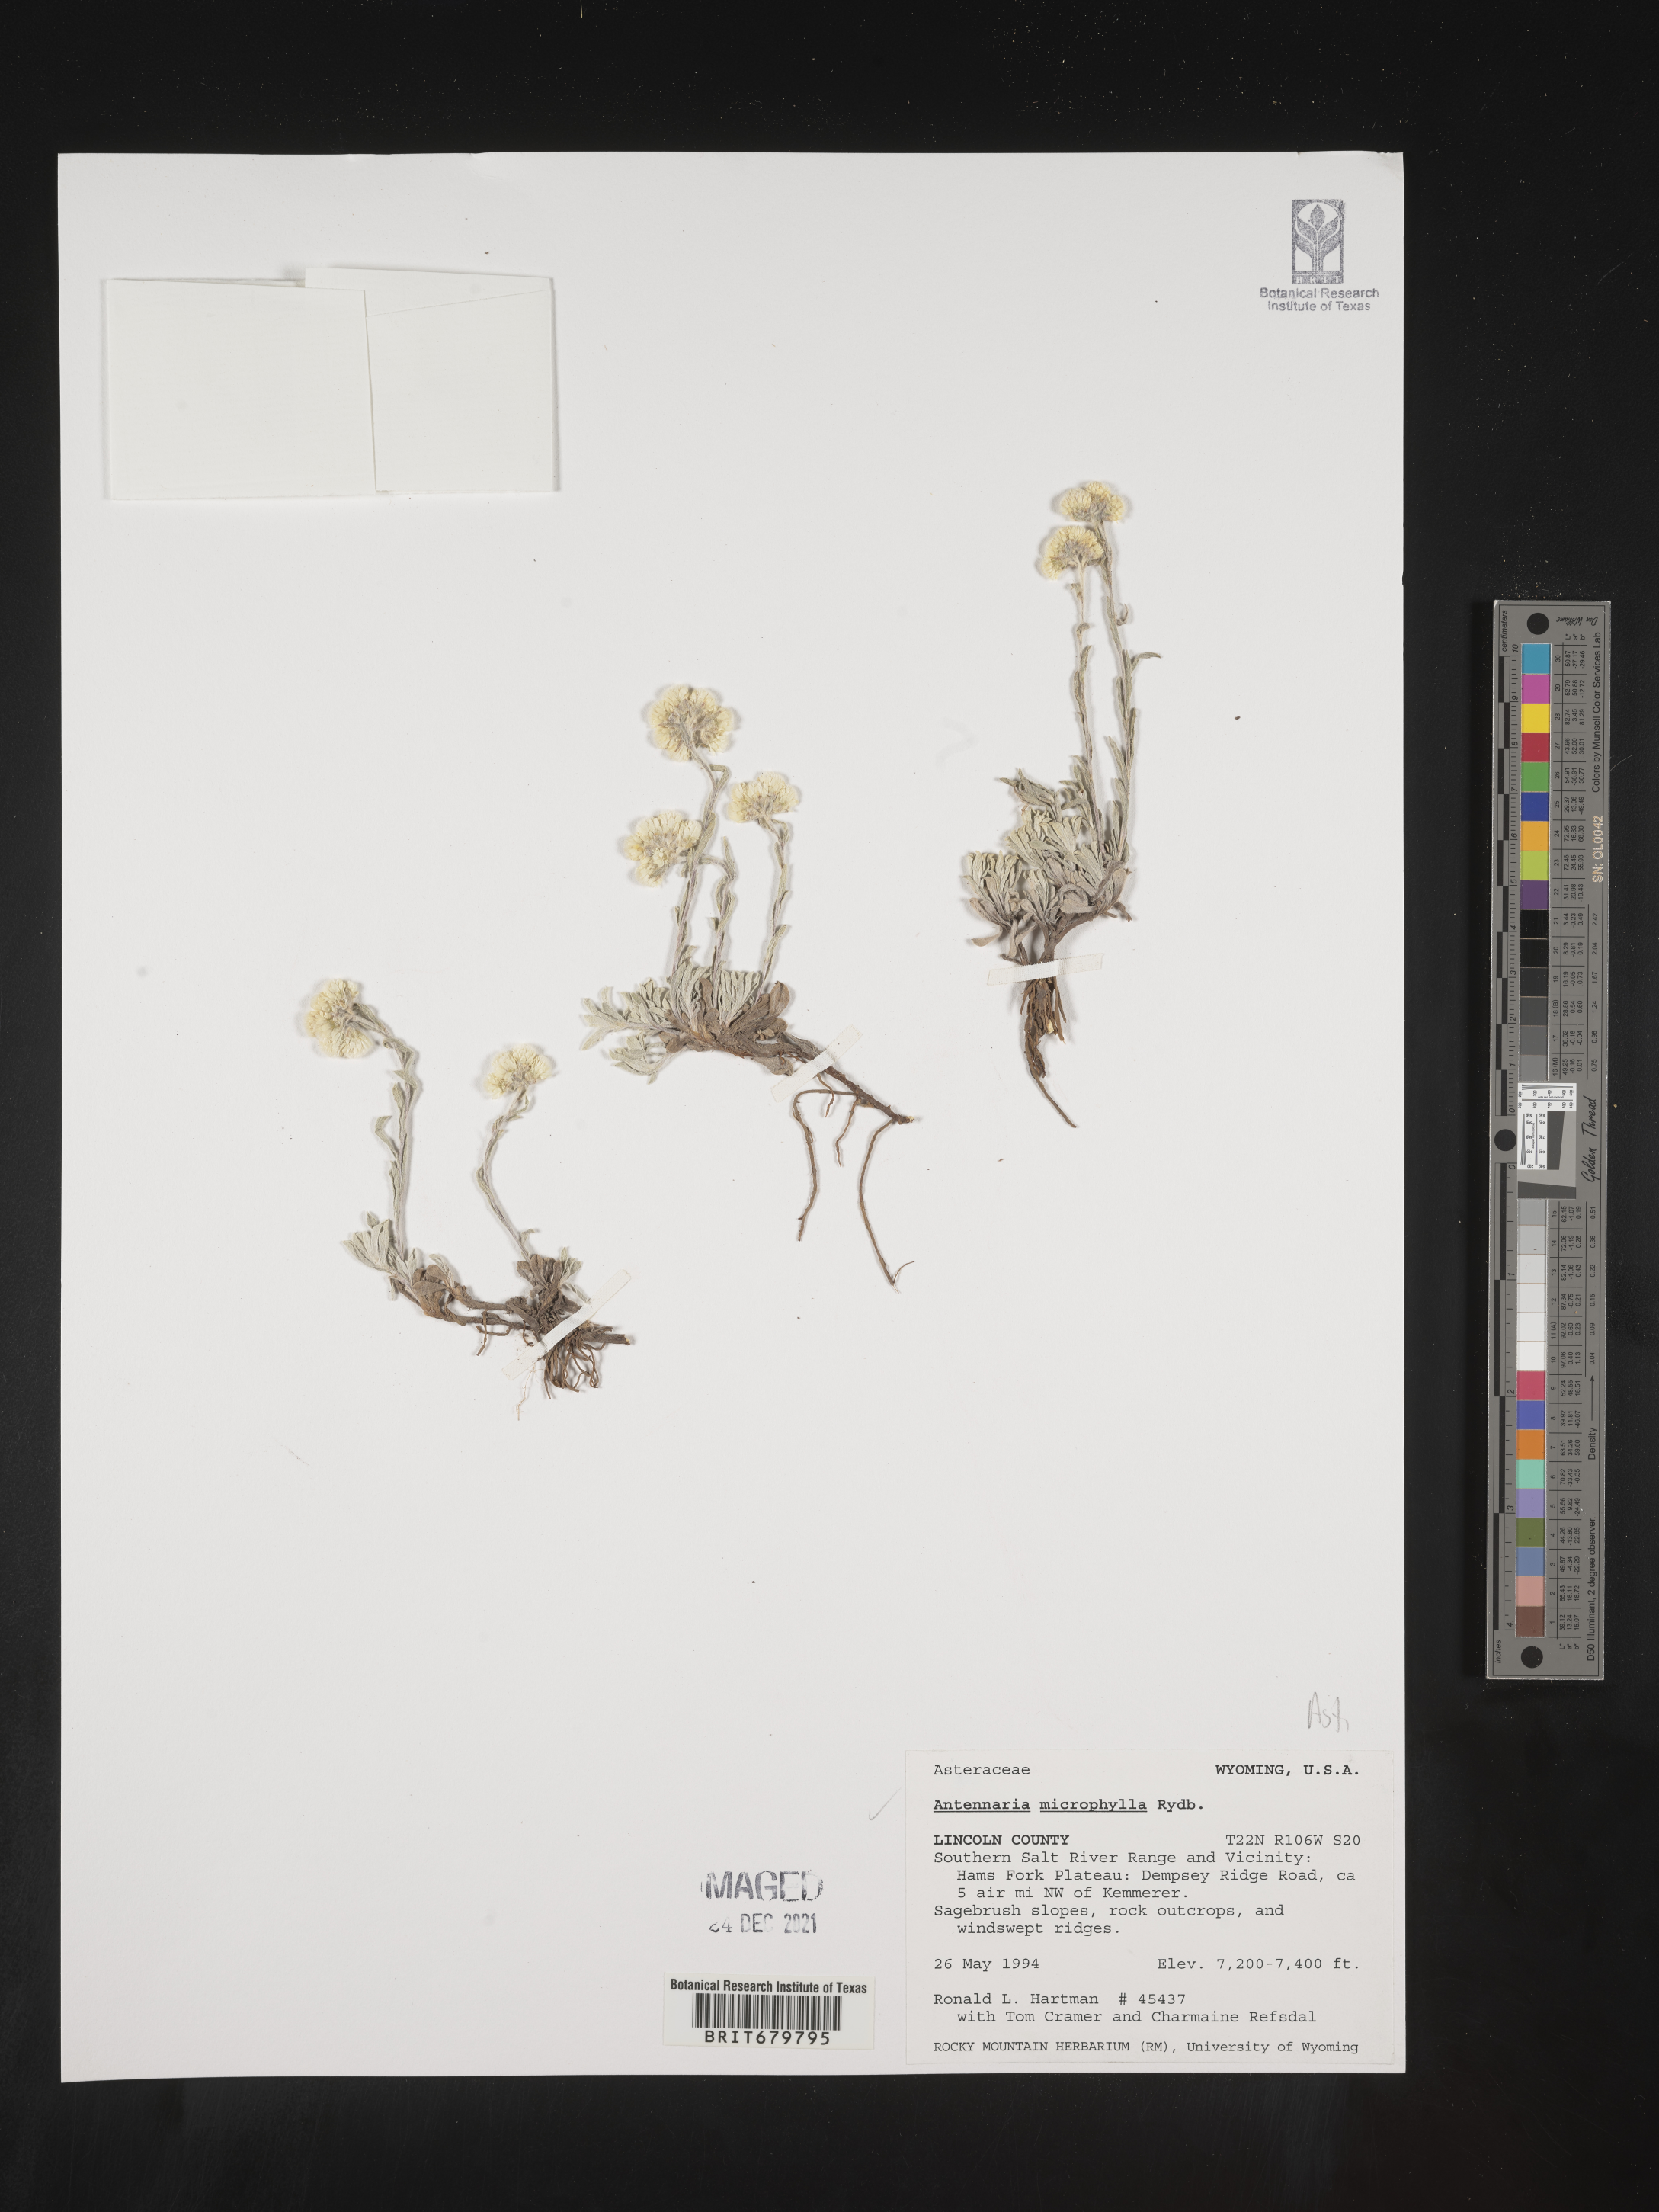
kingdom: Plantae
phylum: Tracheophyta
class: Magnoliopsida
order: Asterales
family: Asteraceae
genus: Antennaria
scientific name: Antennaria microphylla
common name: Littleleaf pussytoes
